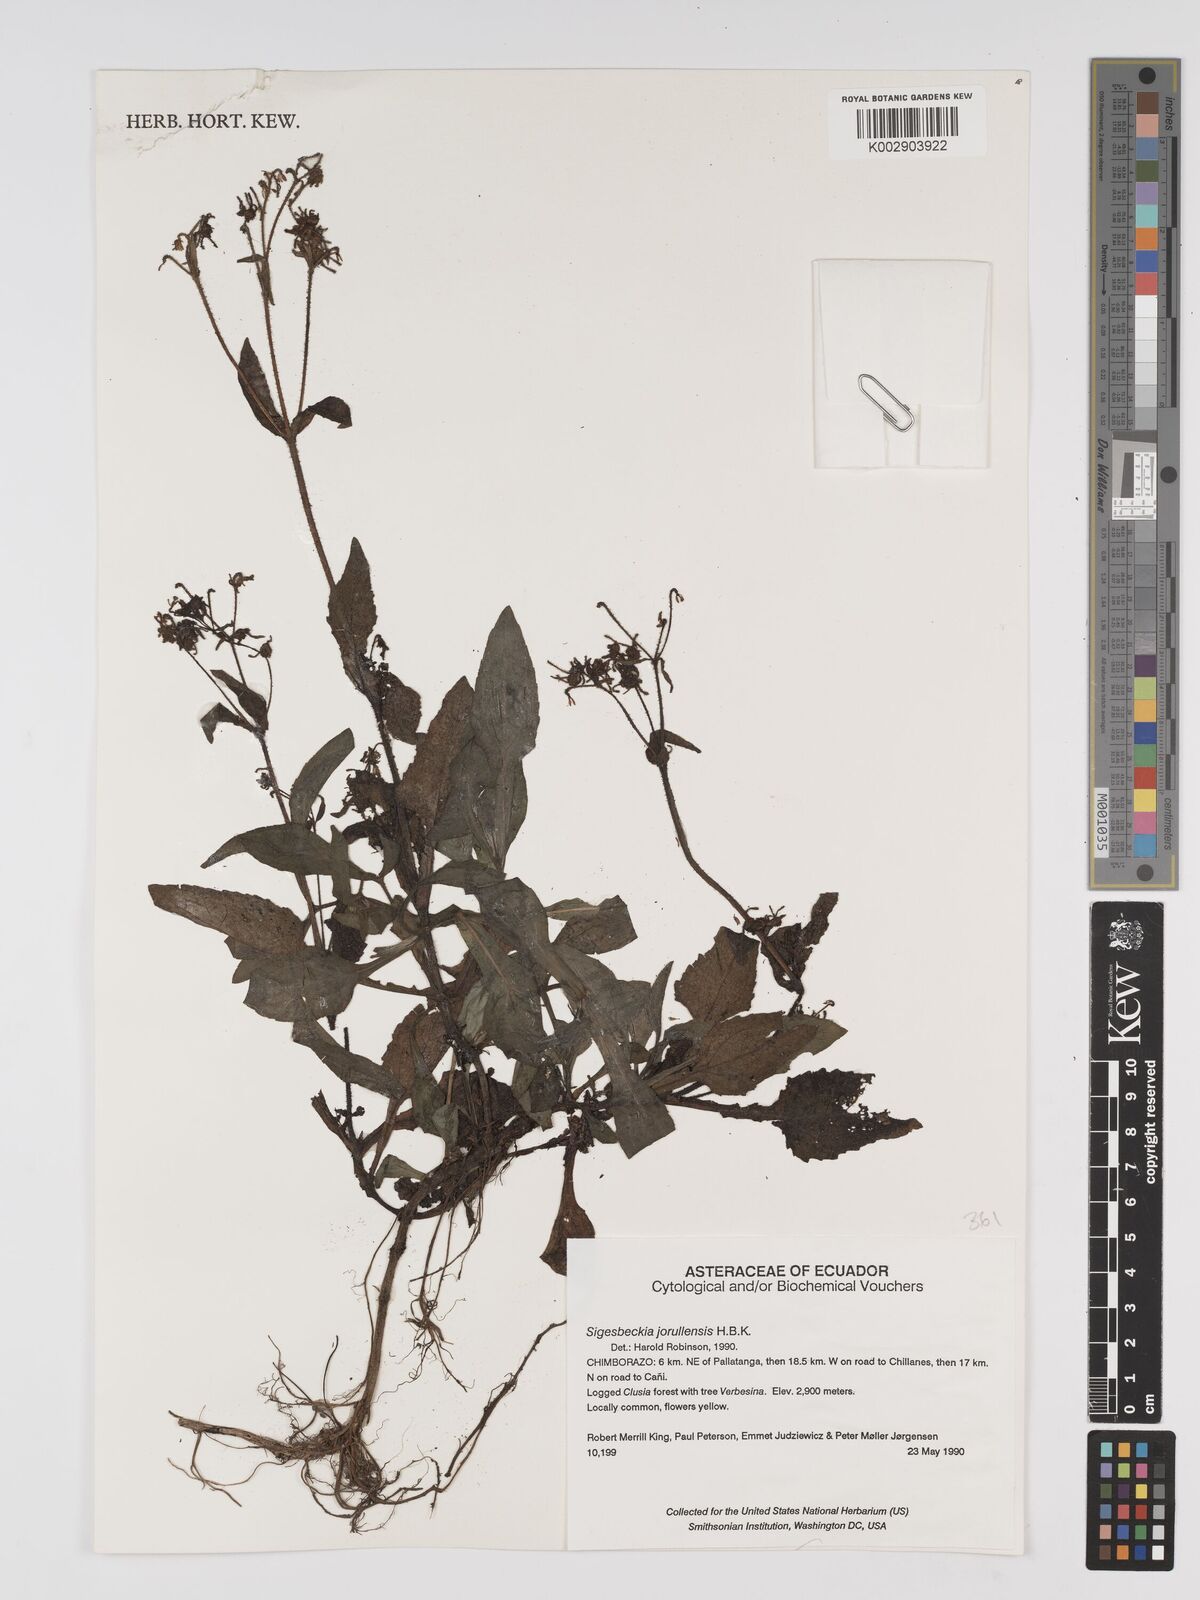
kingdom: Plantae
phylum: Tracheophyta
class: Magnoliopsida
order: Asterales
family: Asteraceae
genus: Sigesbeckia
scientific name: Sigesbeckia jorullensis
